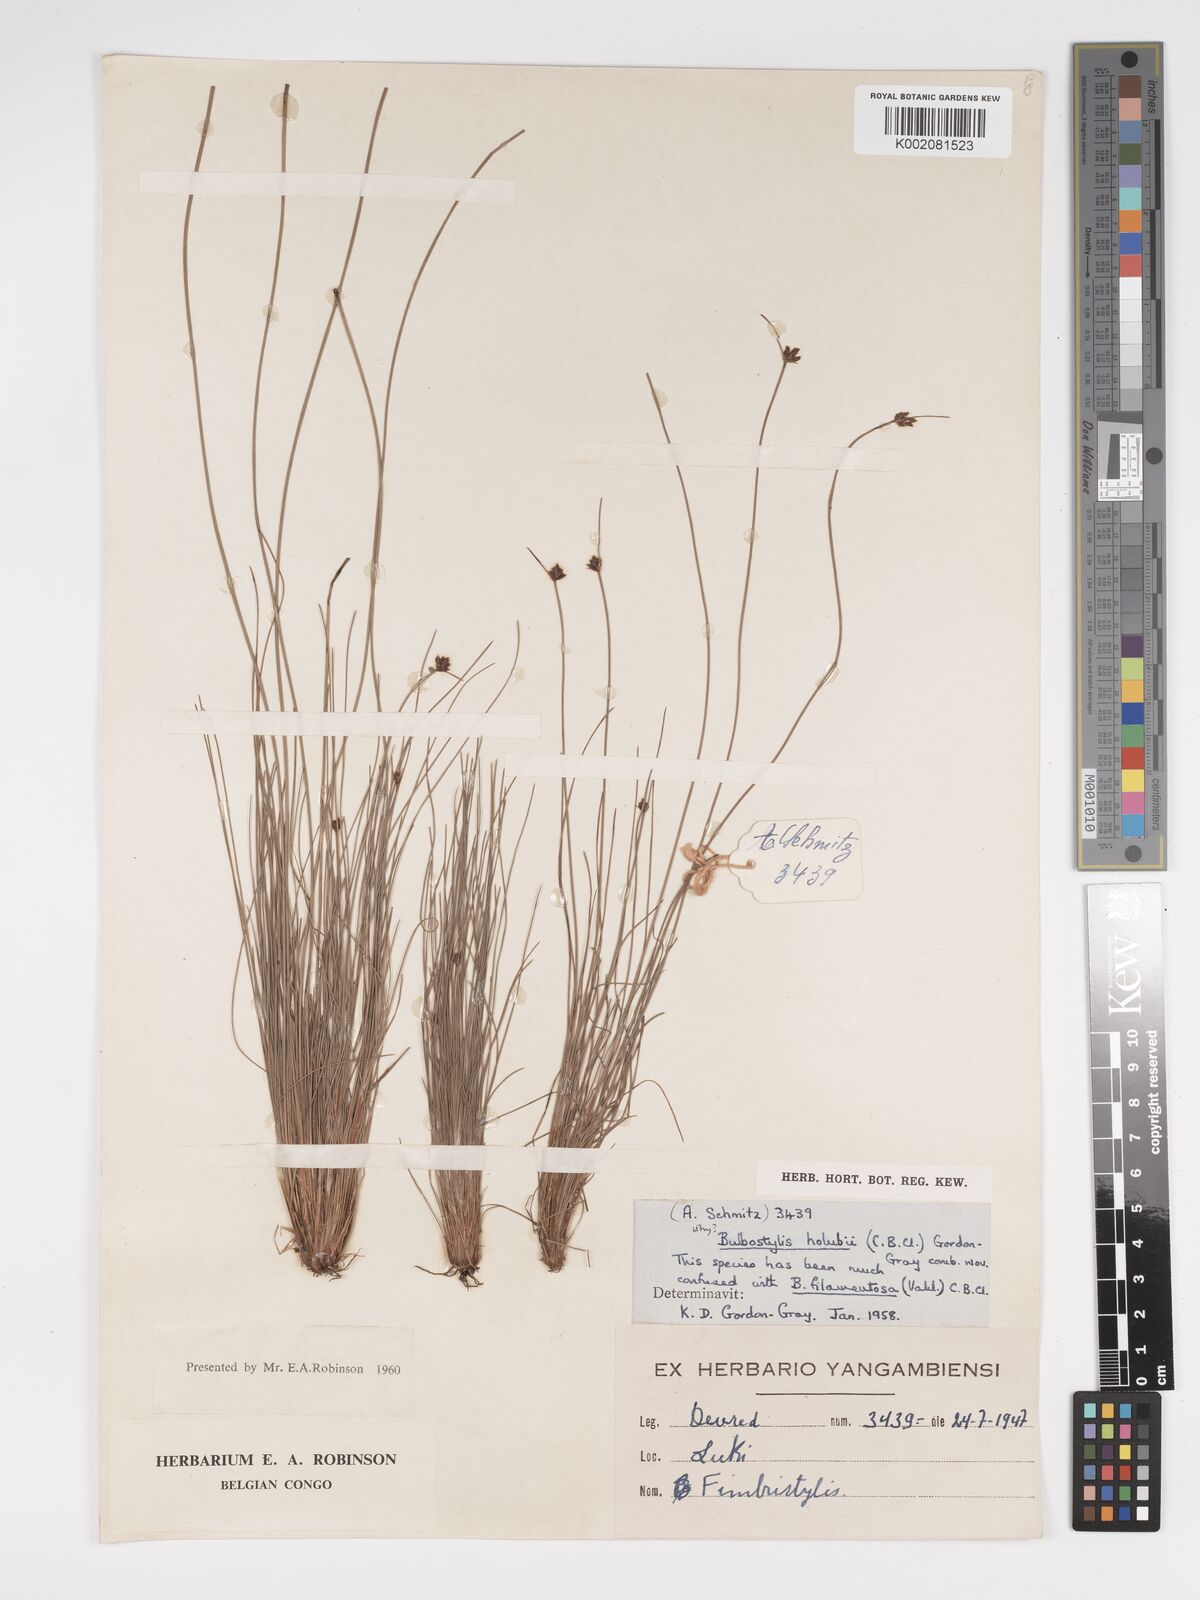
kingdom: Plantae
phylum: Tracheophyta
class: Liliopsida
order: Poales
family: Cyperaceae
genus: Bulbostylis
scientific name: Bulbostylis scabricaulis
